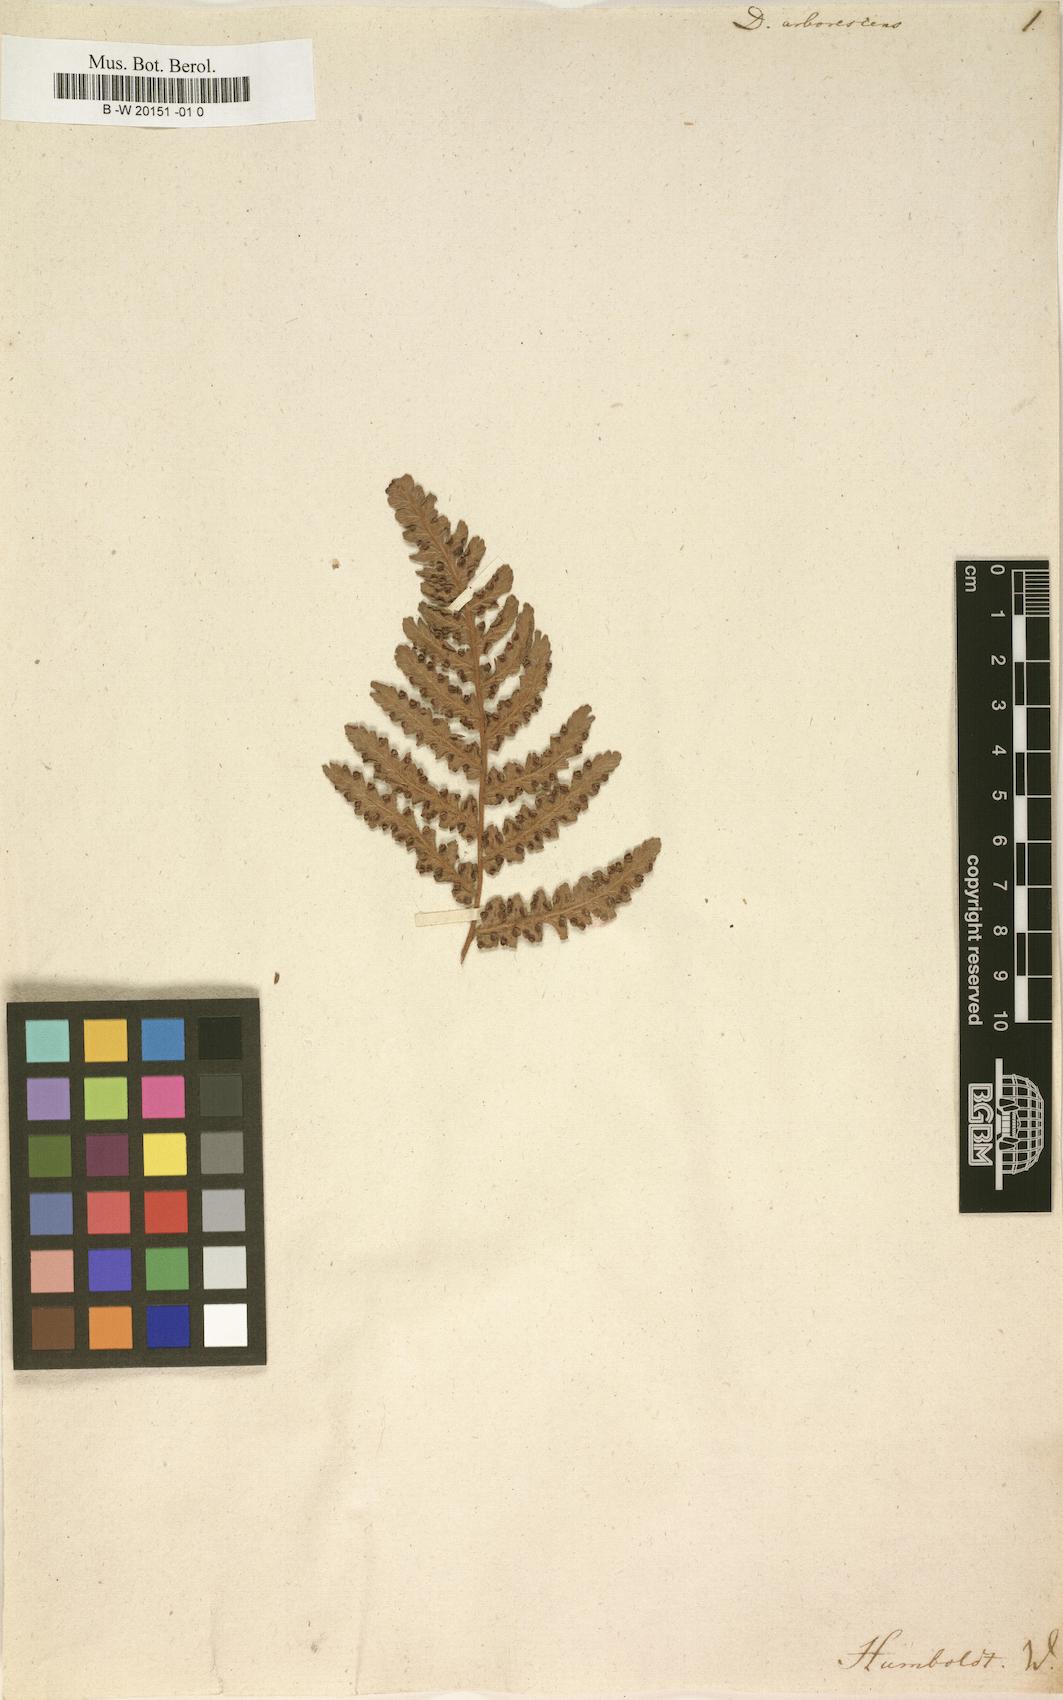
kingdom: Plantae
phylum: Tracheophyta
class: Polypodiopsida
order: Cyatheales
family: Dicksoniaceae
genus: Dicksonia
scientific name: Dicksonia arborescens
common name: St helena tree fern
